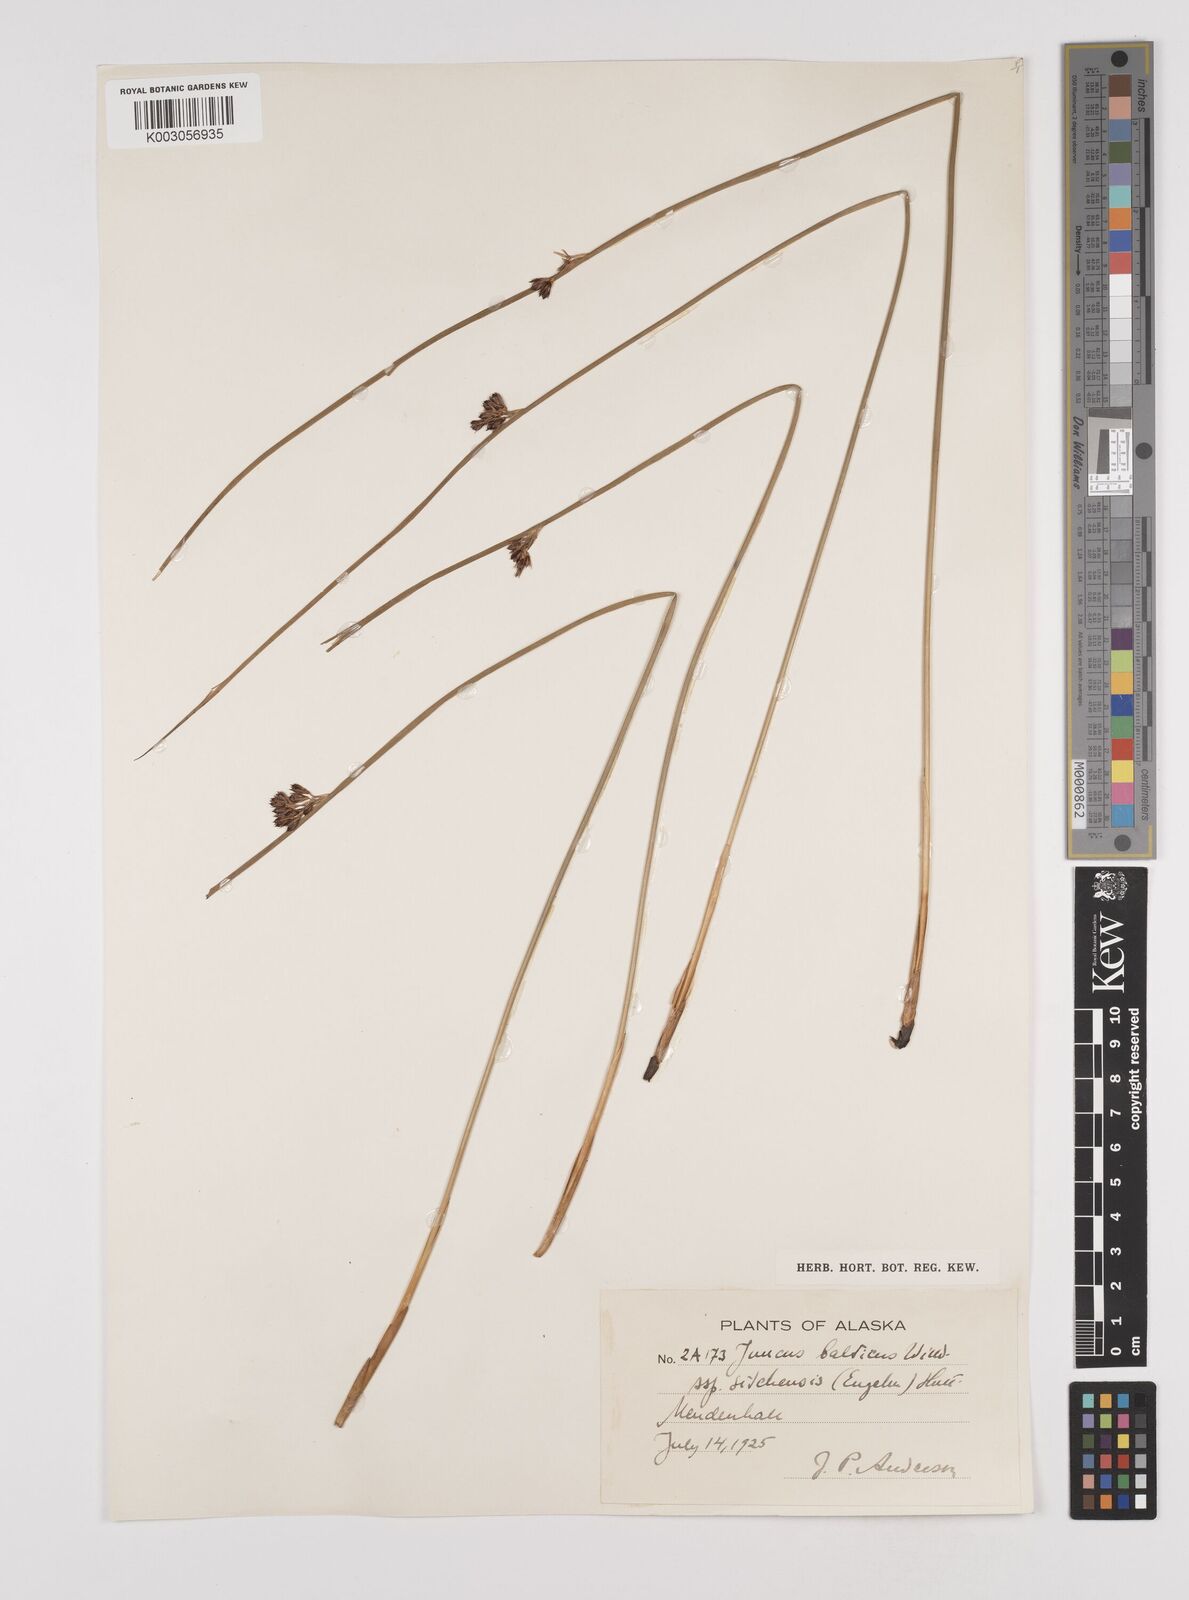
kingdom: Plantae
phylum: Tracheophyta
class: Liliopsida
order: Poales
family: Juncaceae
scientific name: Juncaceae
